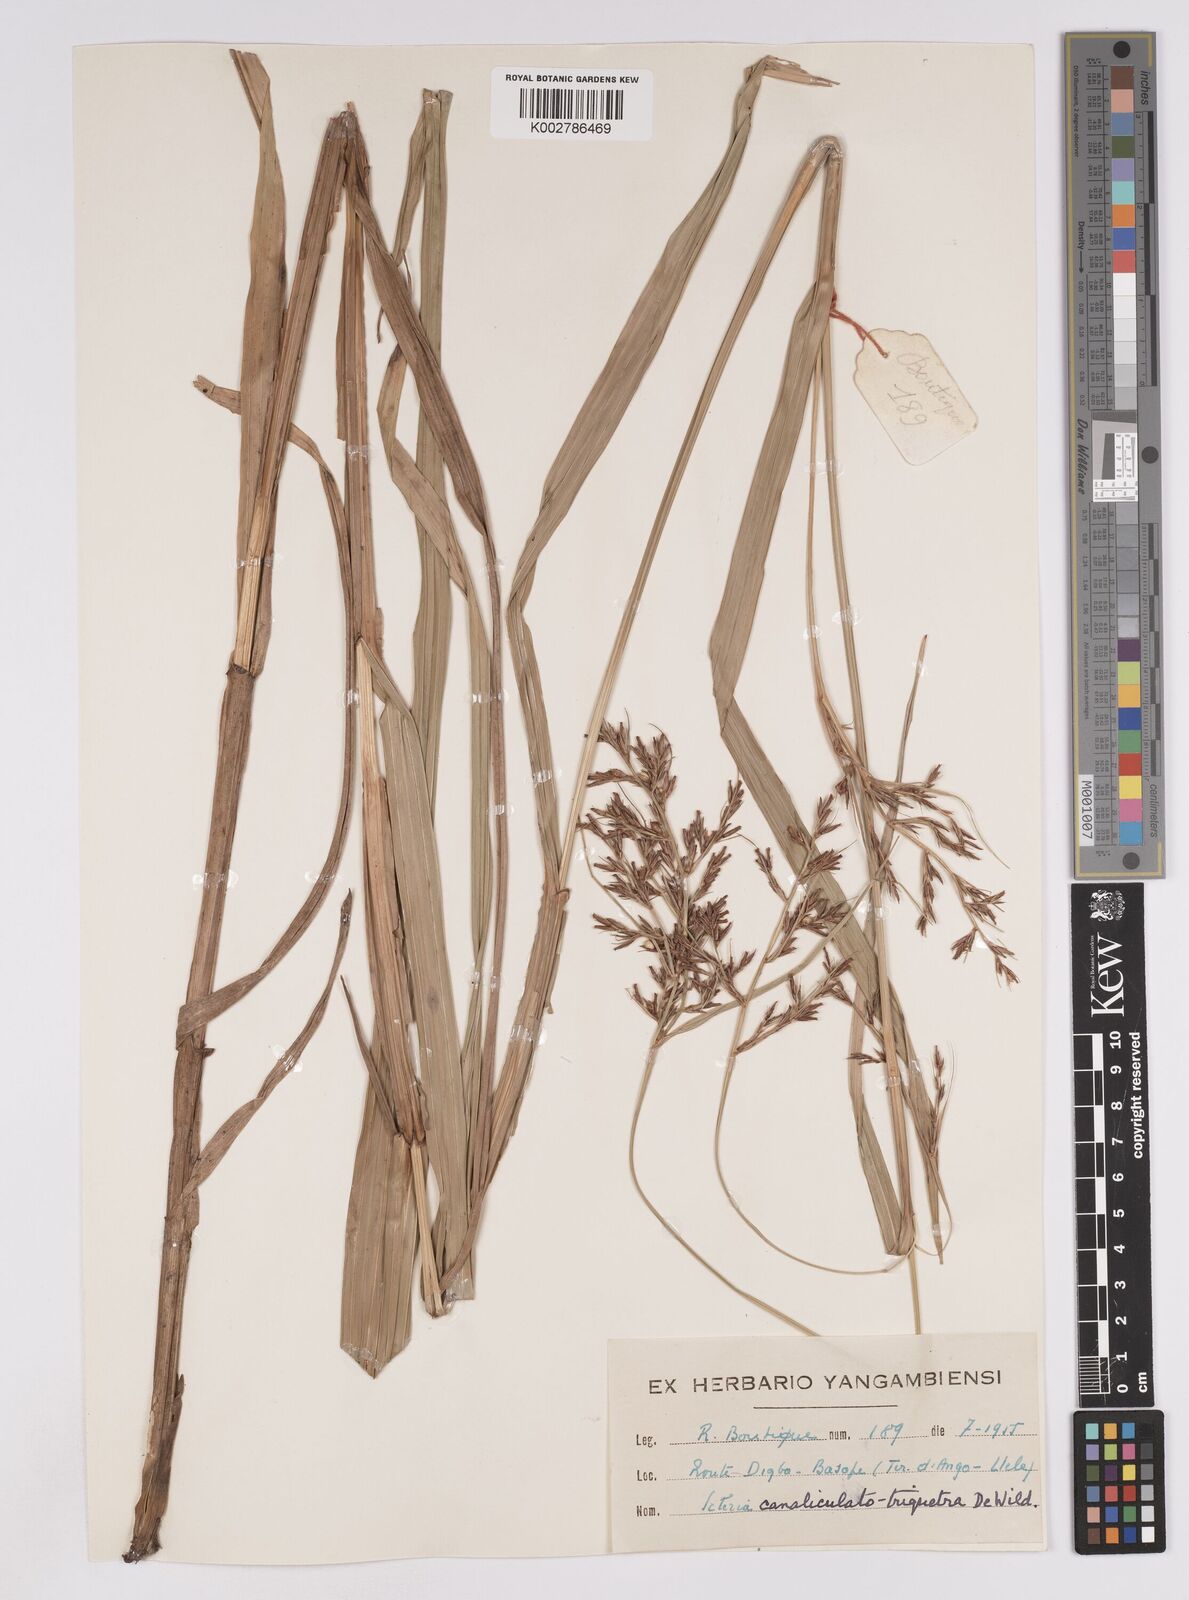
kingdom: Plantae
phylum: Tracheophyta
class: Liliopsida
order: Poales
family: Cyperaceae
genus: Scleria
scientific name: Scleria lagoensis
